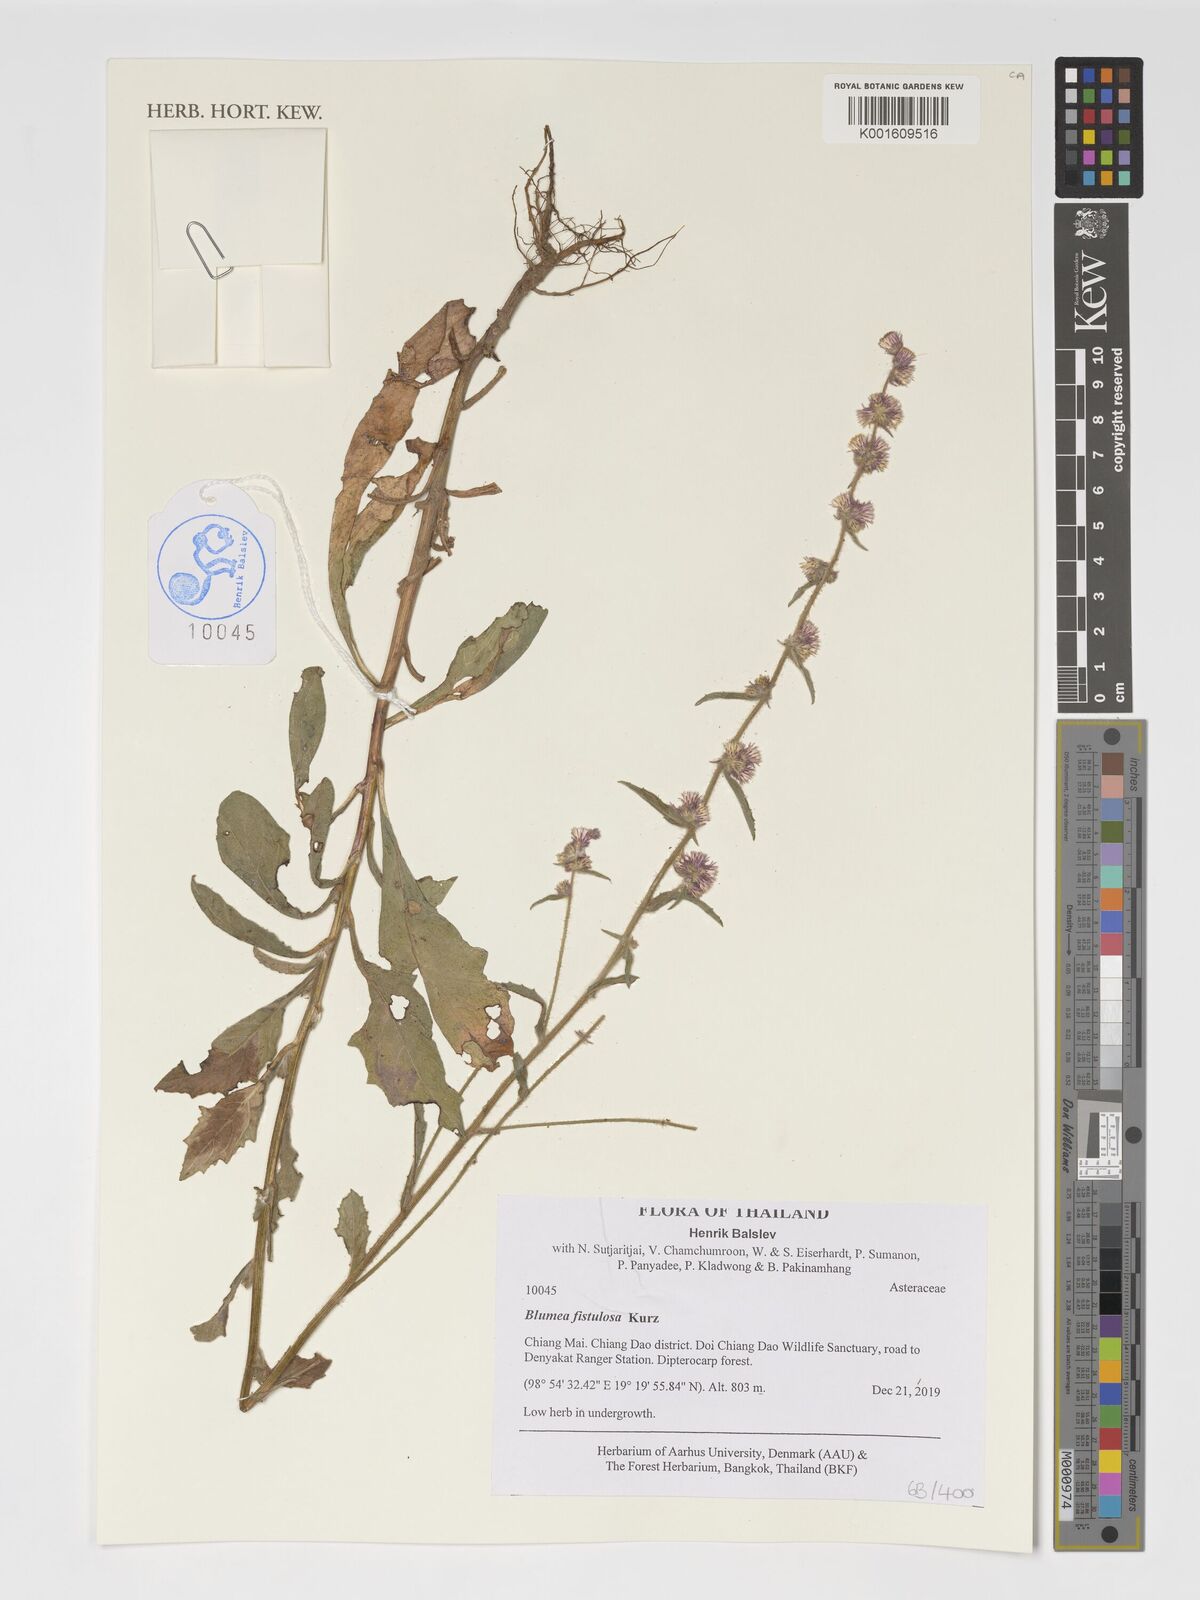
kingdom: Plantae
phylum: Tracheophyta
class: Magnoliopsida
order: Asterales
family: Asteraceae
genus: Blumea
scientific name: Blumea fistulosa
